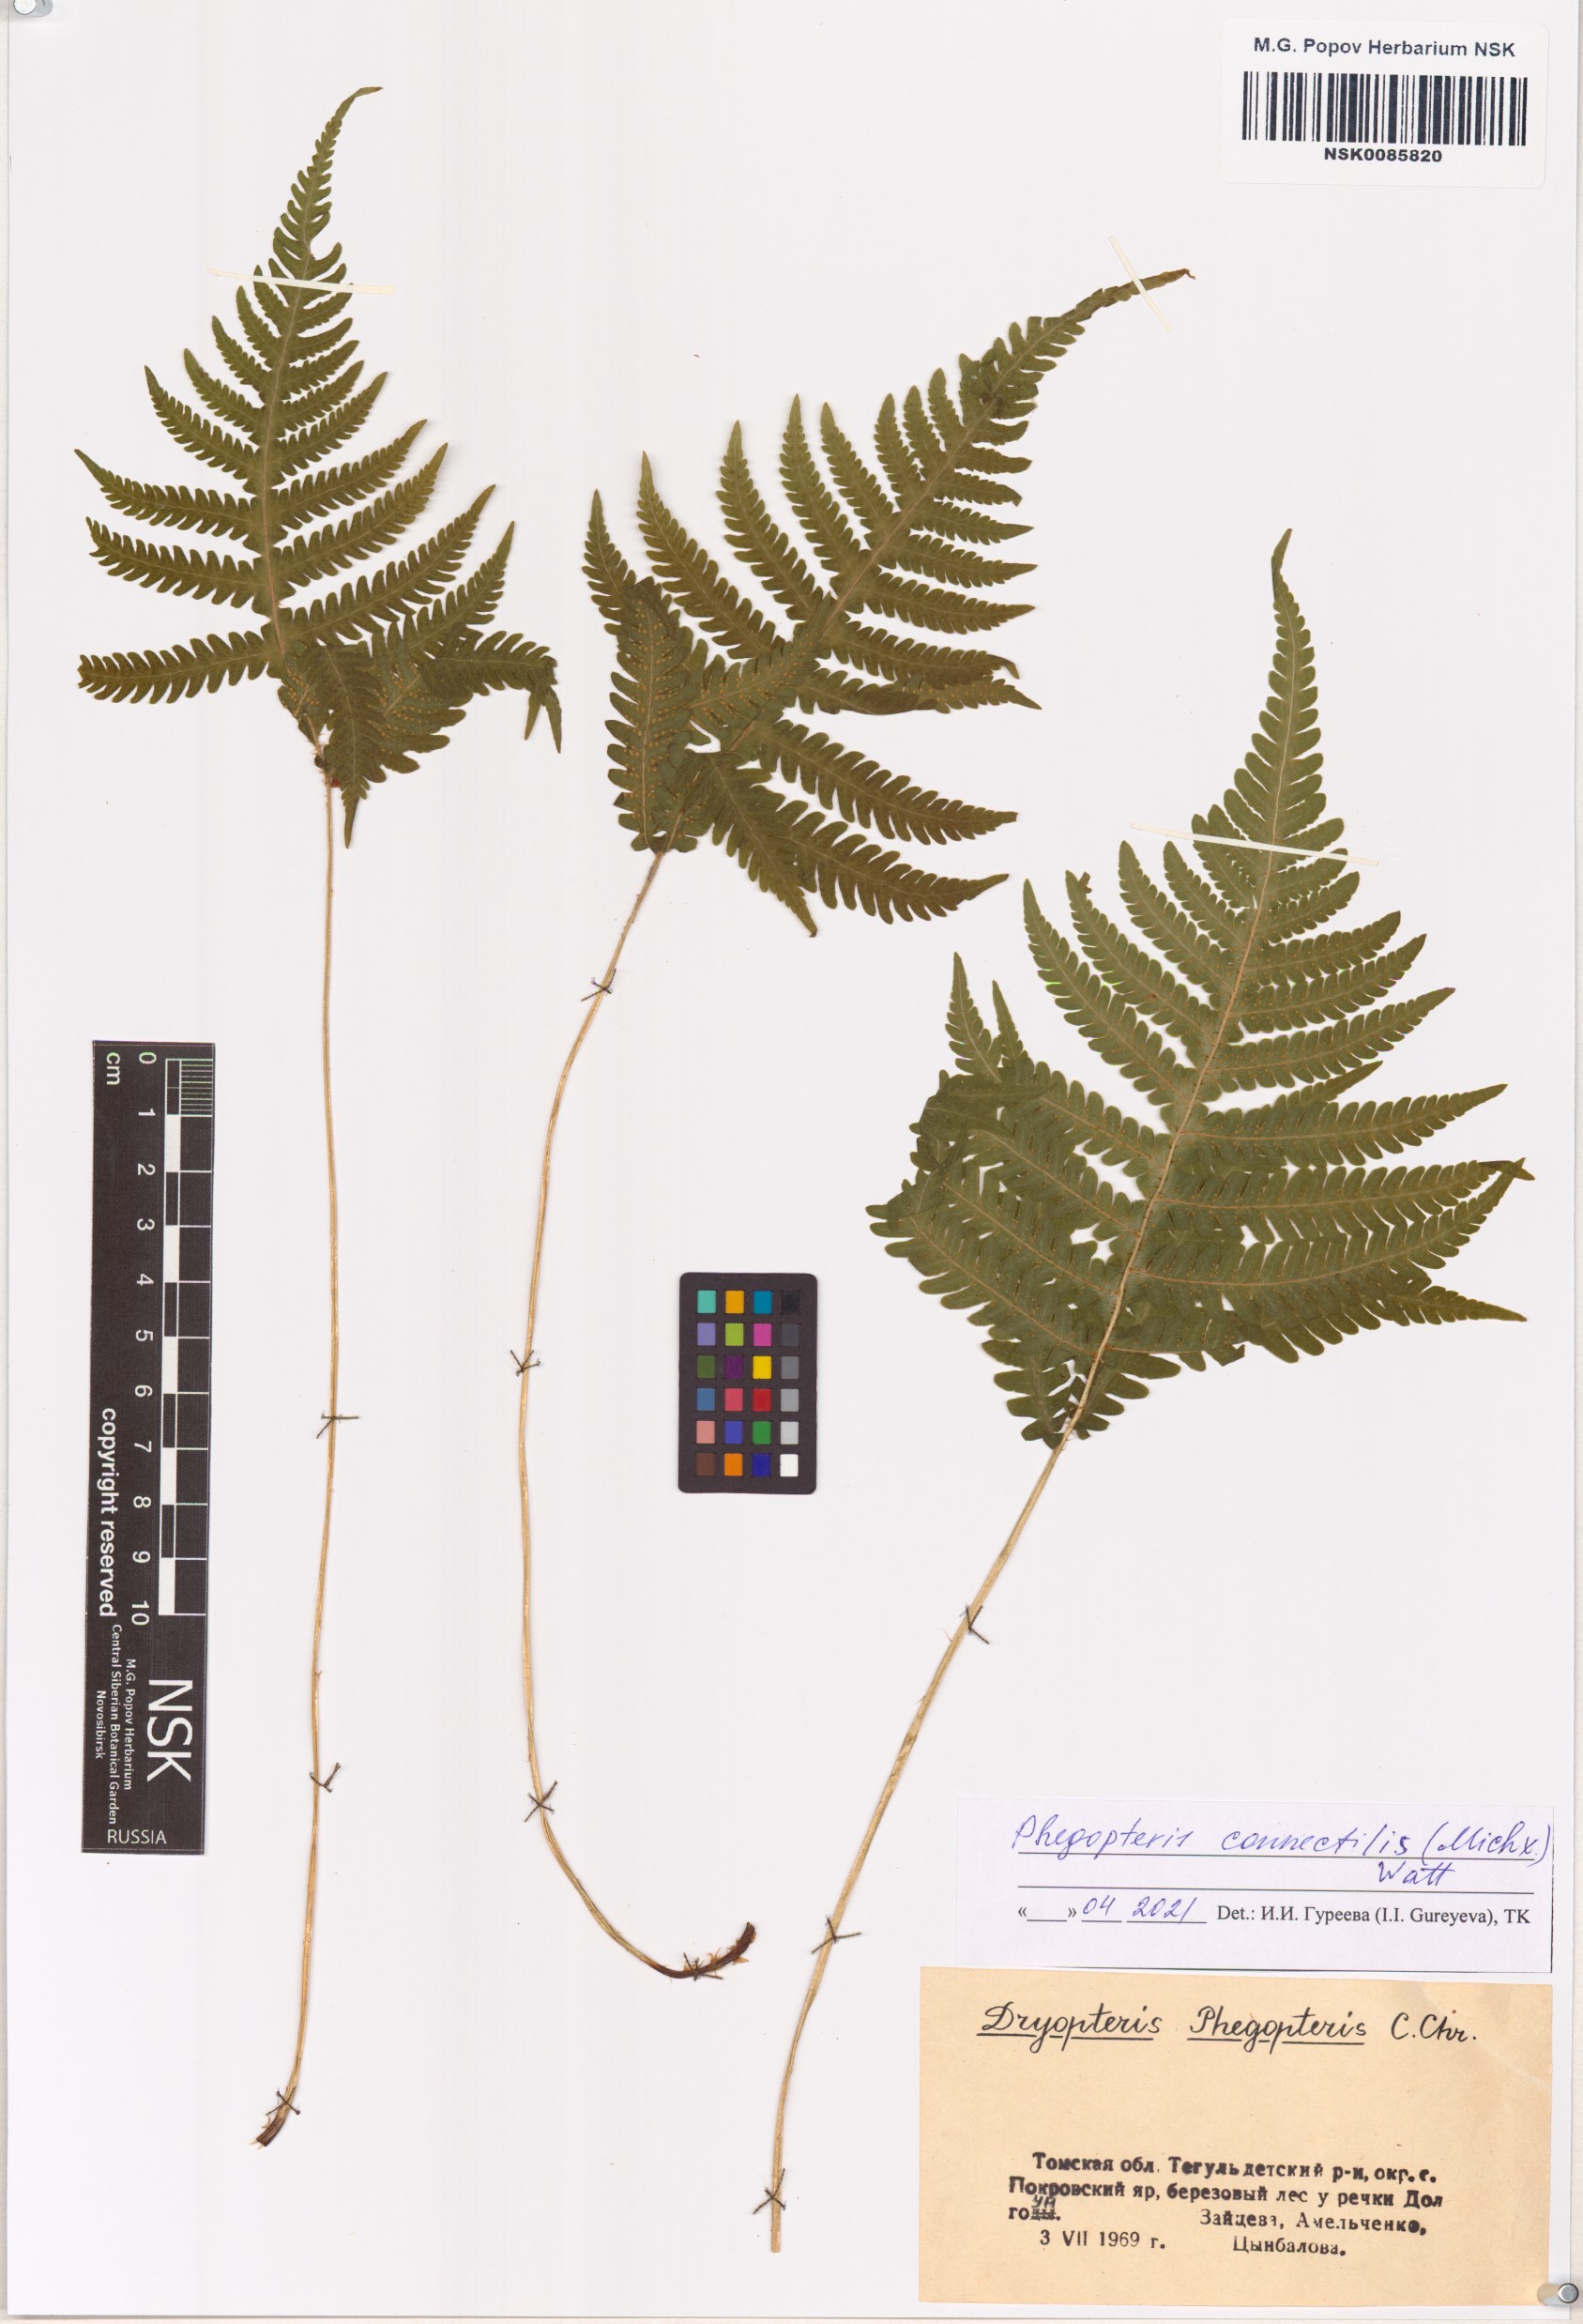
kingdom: Plantae
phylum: Tracheophyta
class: Polypodiopsida
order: Polypodiales
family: Thelypteridaceae
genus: Phegopteris
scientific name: Phegopteris connectilis
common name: Beech fern
